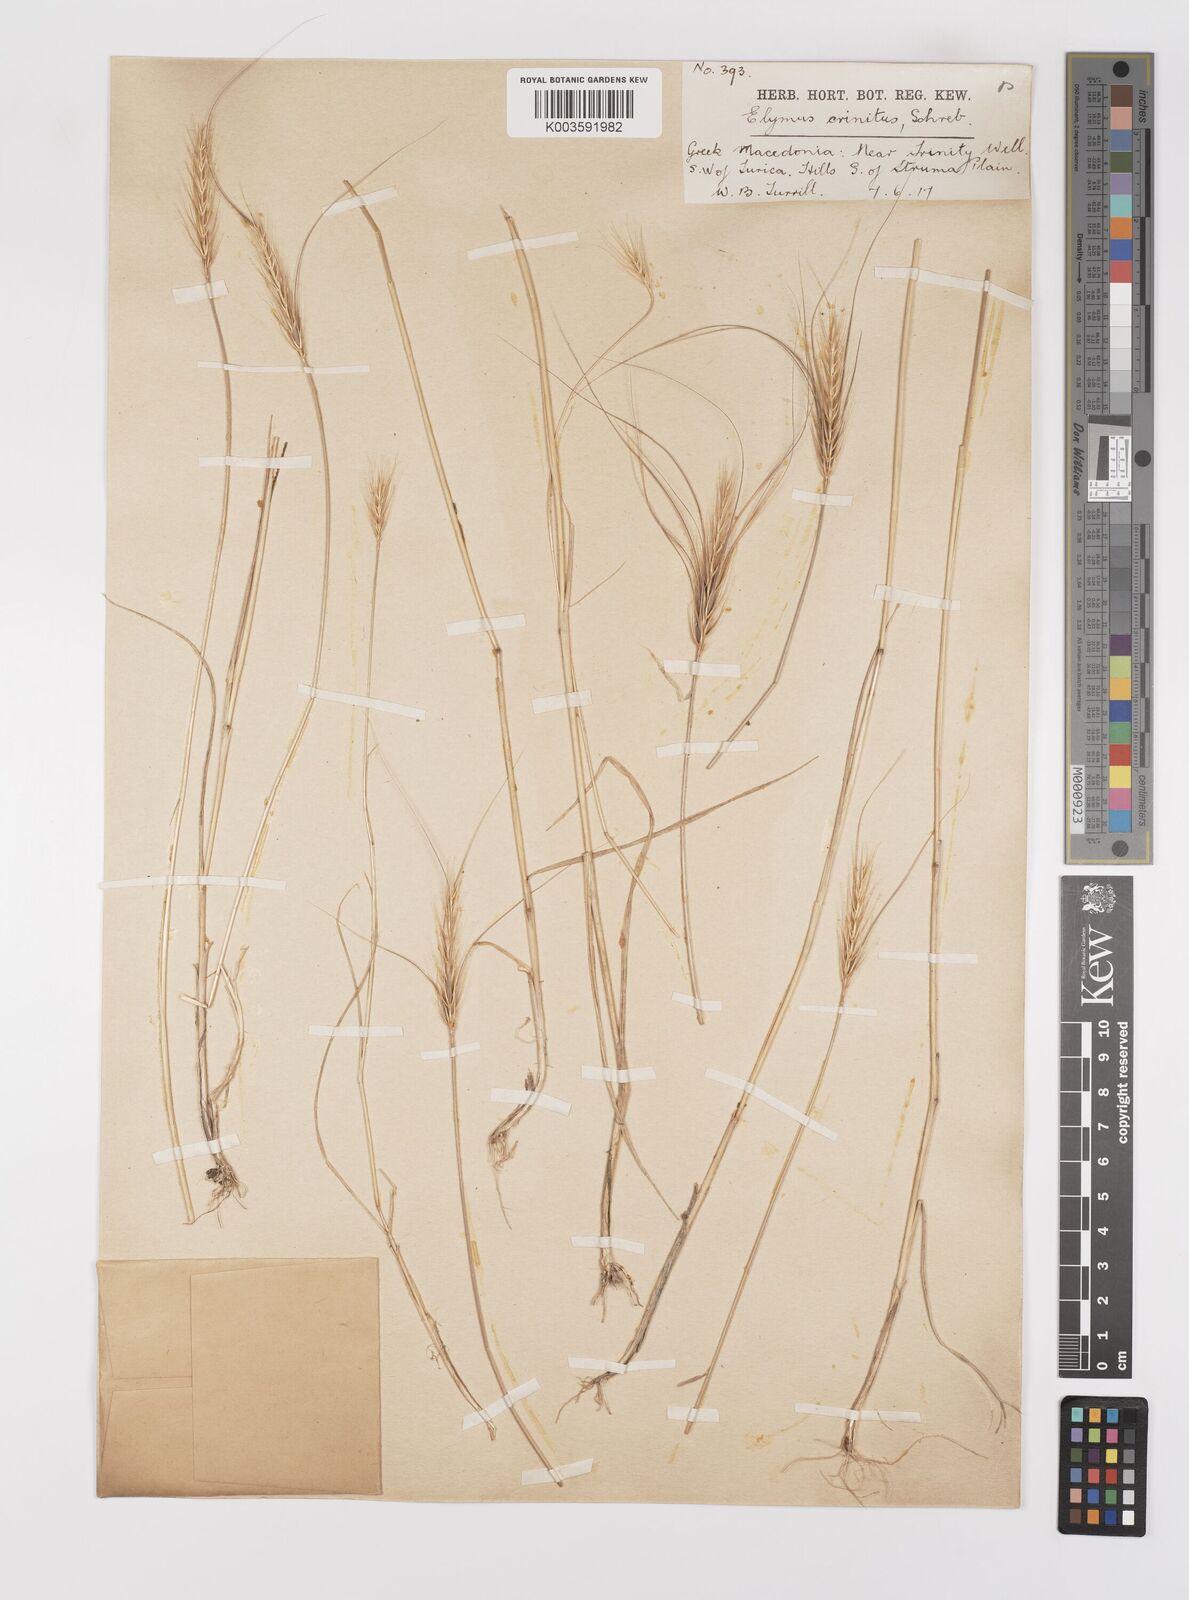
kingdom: Plantae
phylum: Tracheophyta
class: Liliopsida
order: Poales
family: Poaceae
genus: Taeniatherum
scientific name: Taeniatherum caput-medusae
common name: Medusahead
